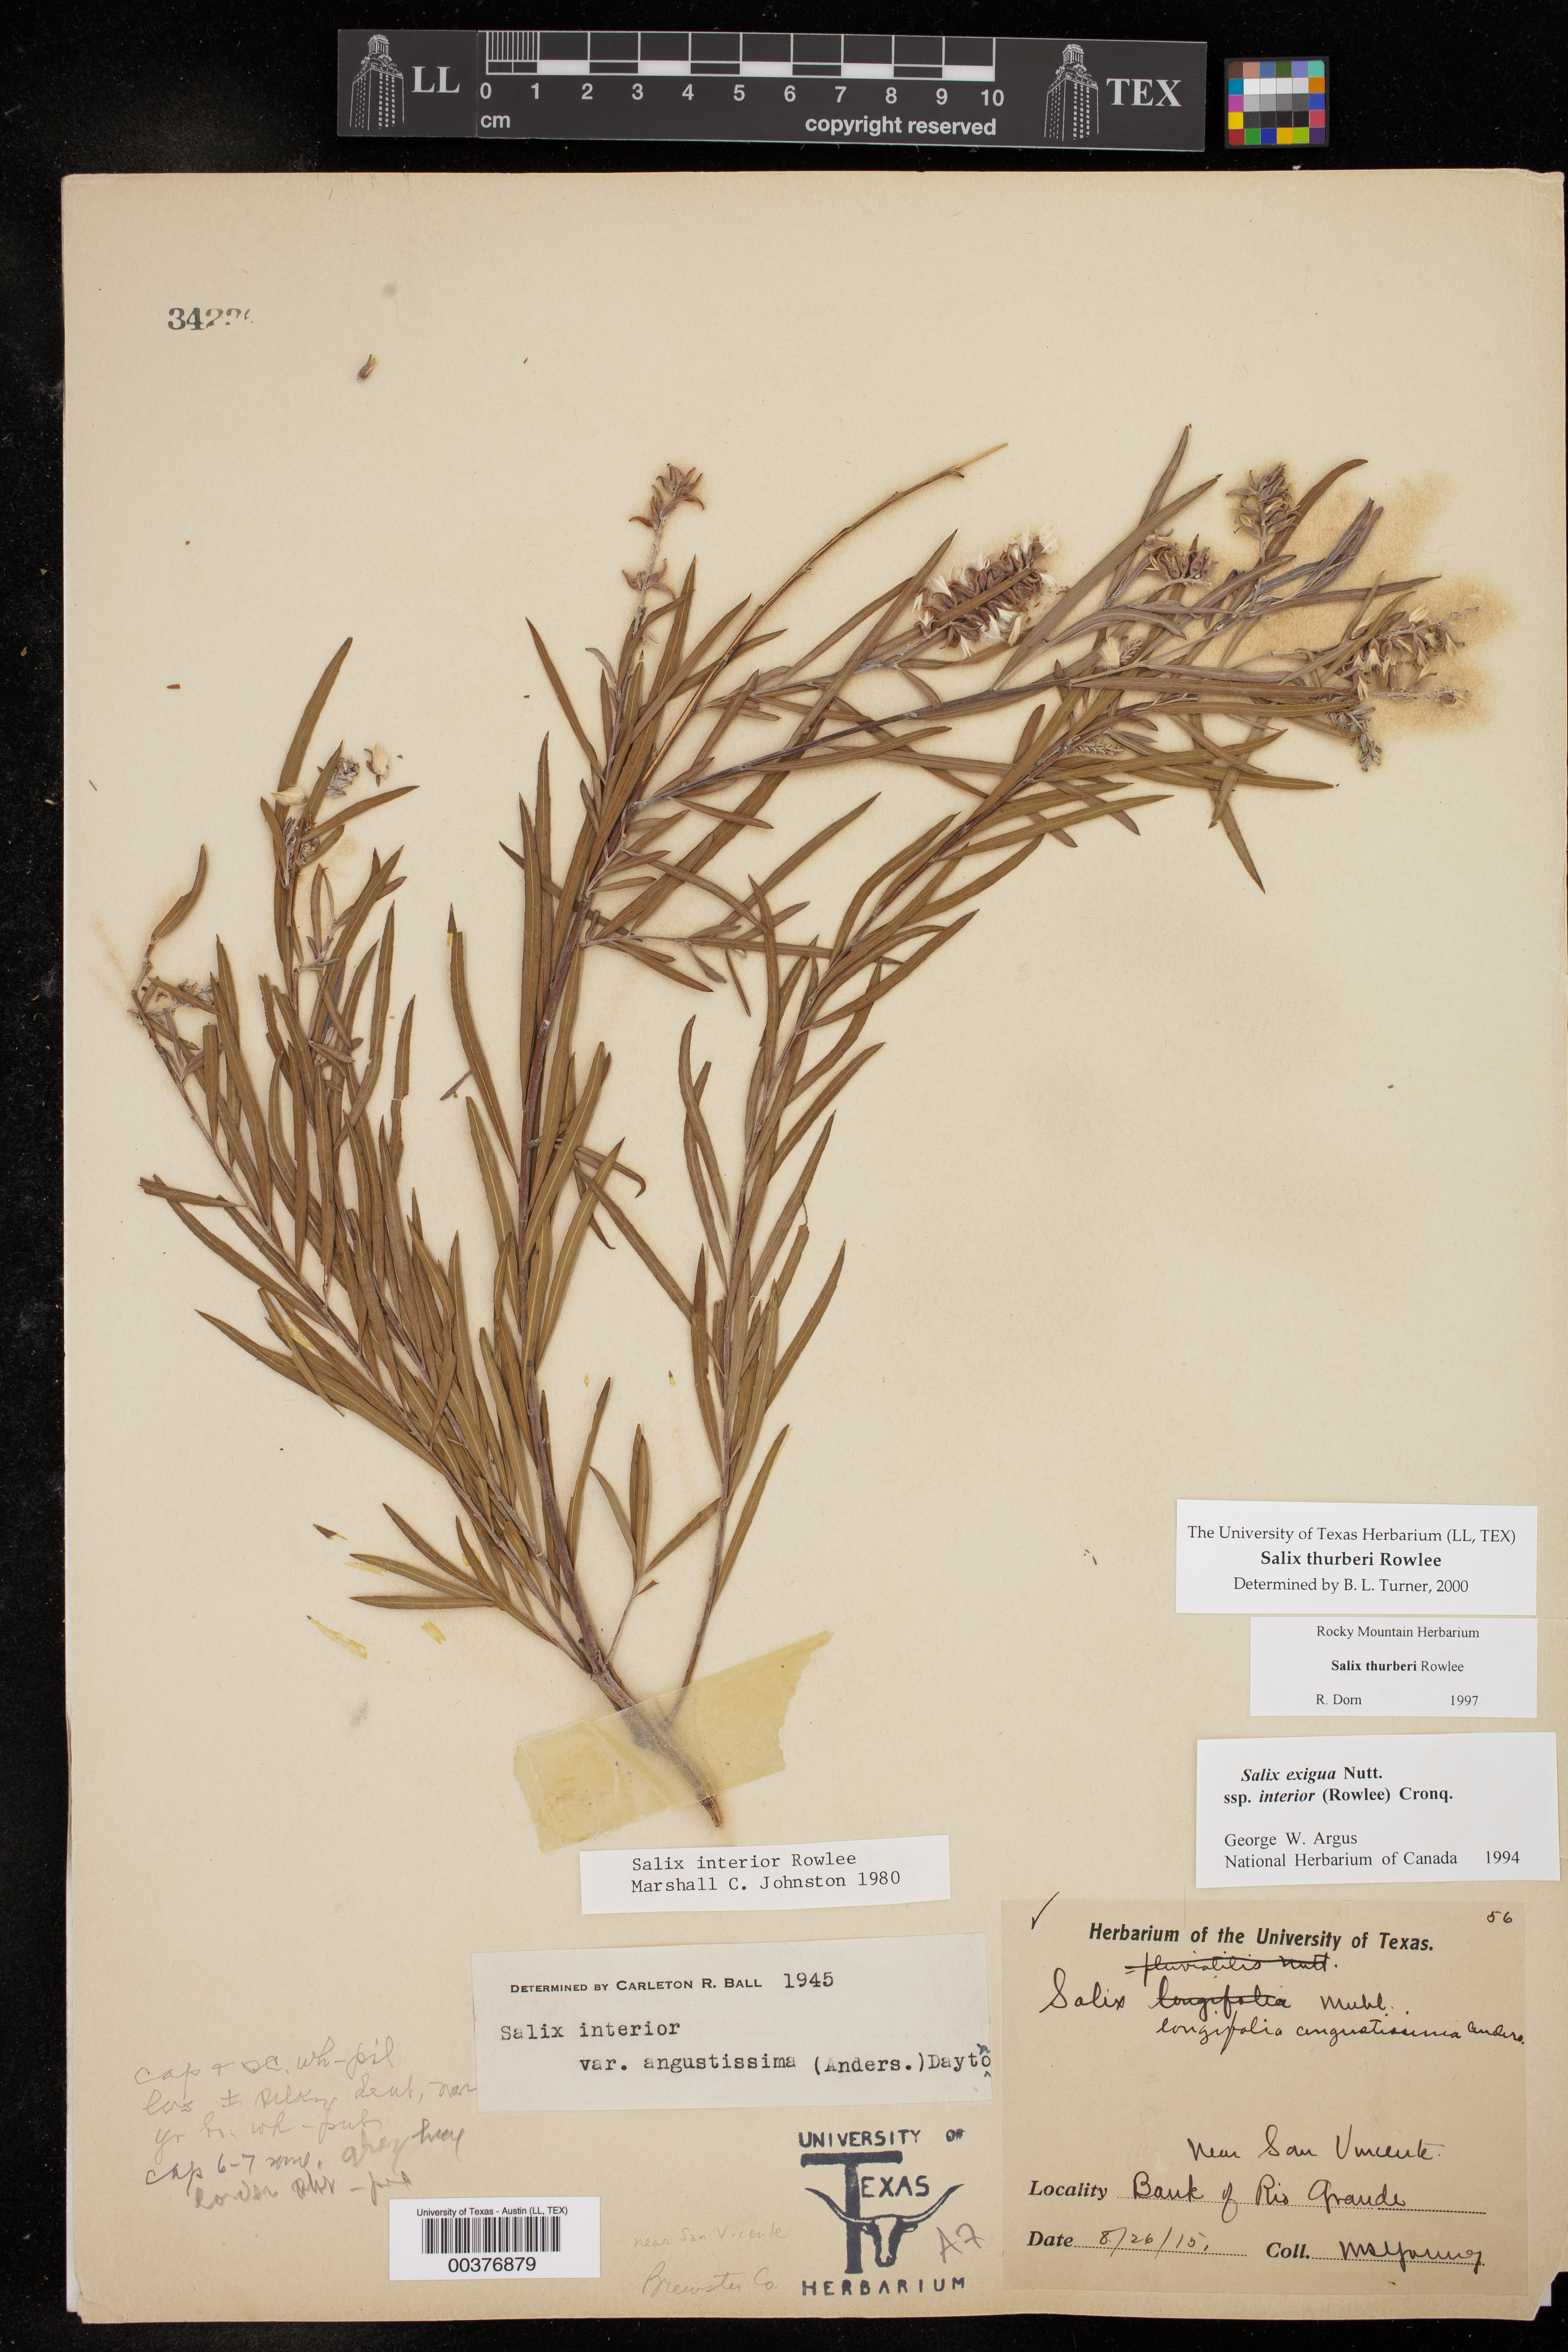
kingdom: Plantae
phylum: Tracheophyta
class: Magnoliopsida
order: Malpighiales
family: Salicaceae
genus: Salix
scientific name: Salix exigua
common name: Coyote willow
